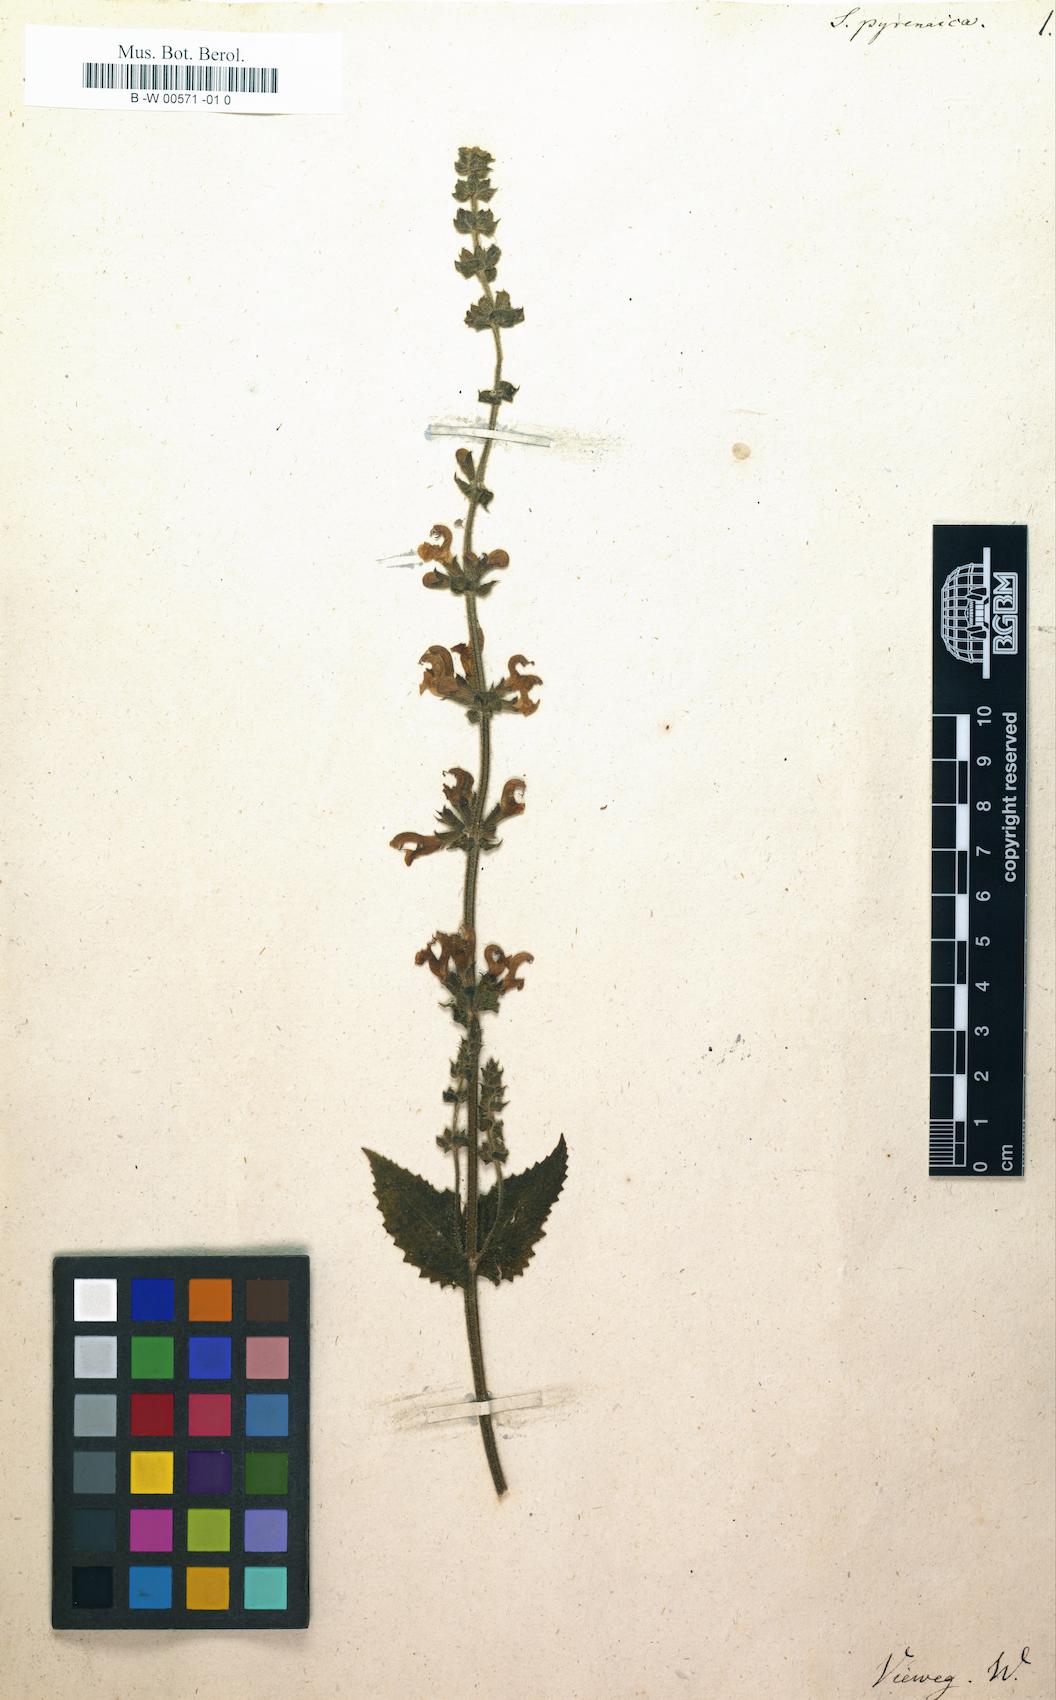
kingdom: Plantae
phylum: Tracheophyta
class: Magnoliopsida
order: Lamiales
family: Lamiaceae
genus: Salvia
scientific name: Salvia verbenaca
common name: Wild clary
